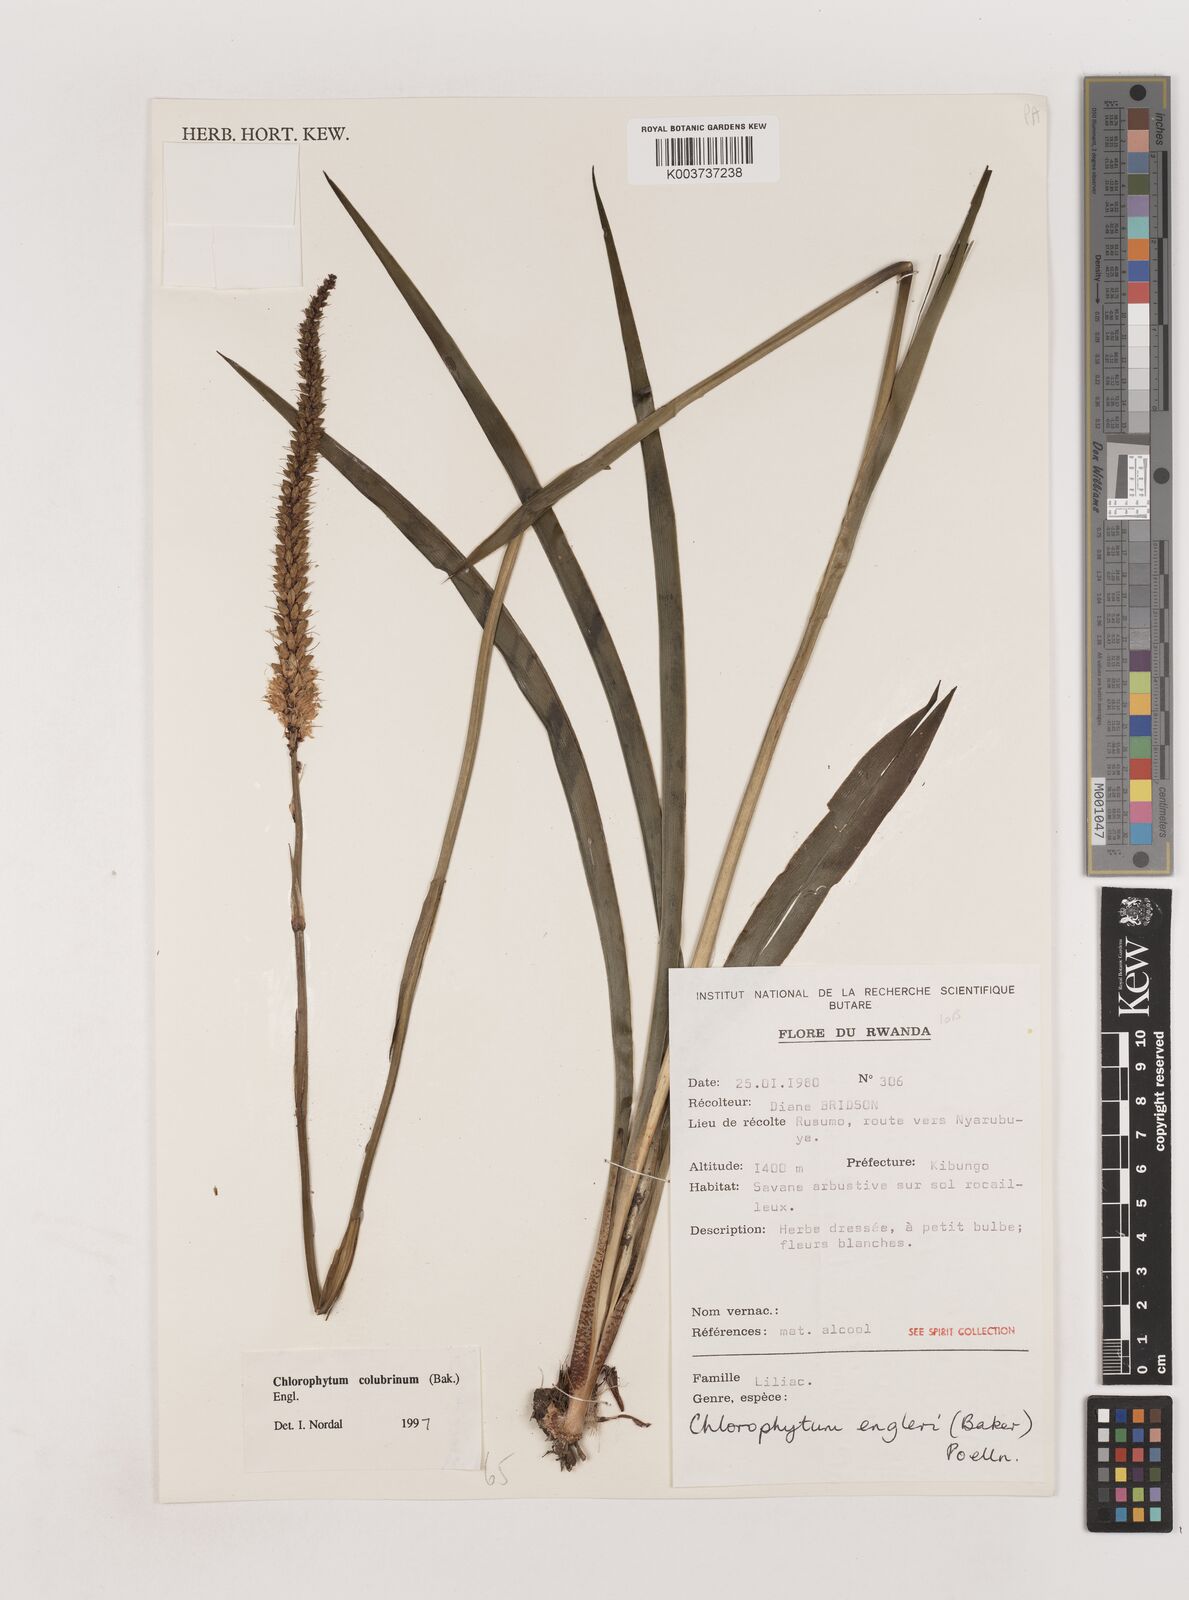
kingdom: Plantae
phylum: Tracheophyta
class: Liliopsida
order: Asparagales
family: Asparagaceae
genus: Chlorophytum
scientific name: Chlorophytum colubrinum
